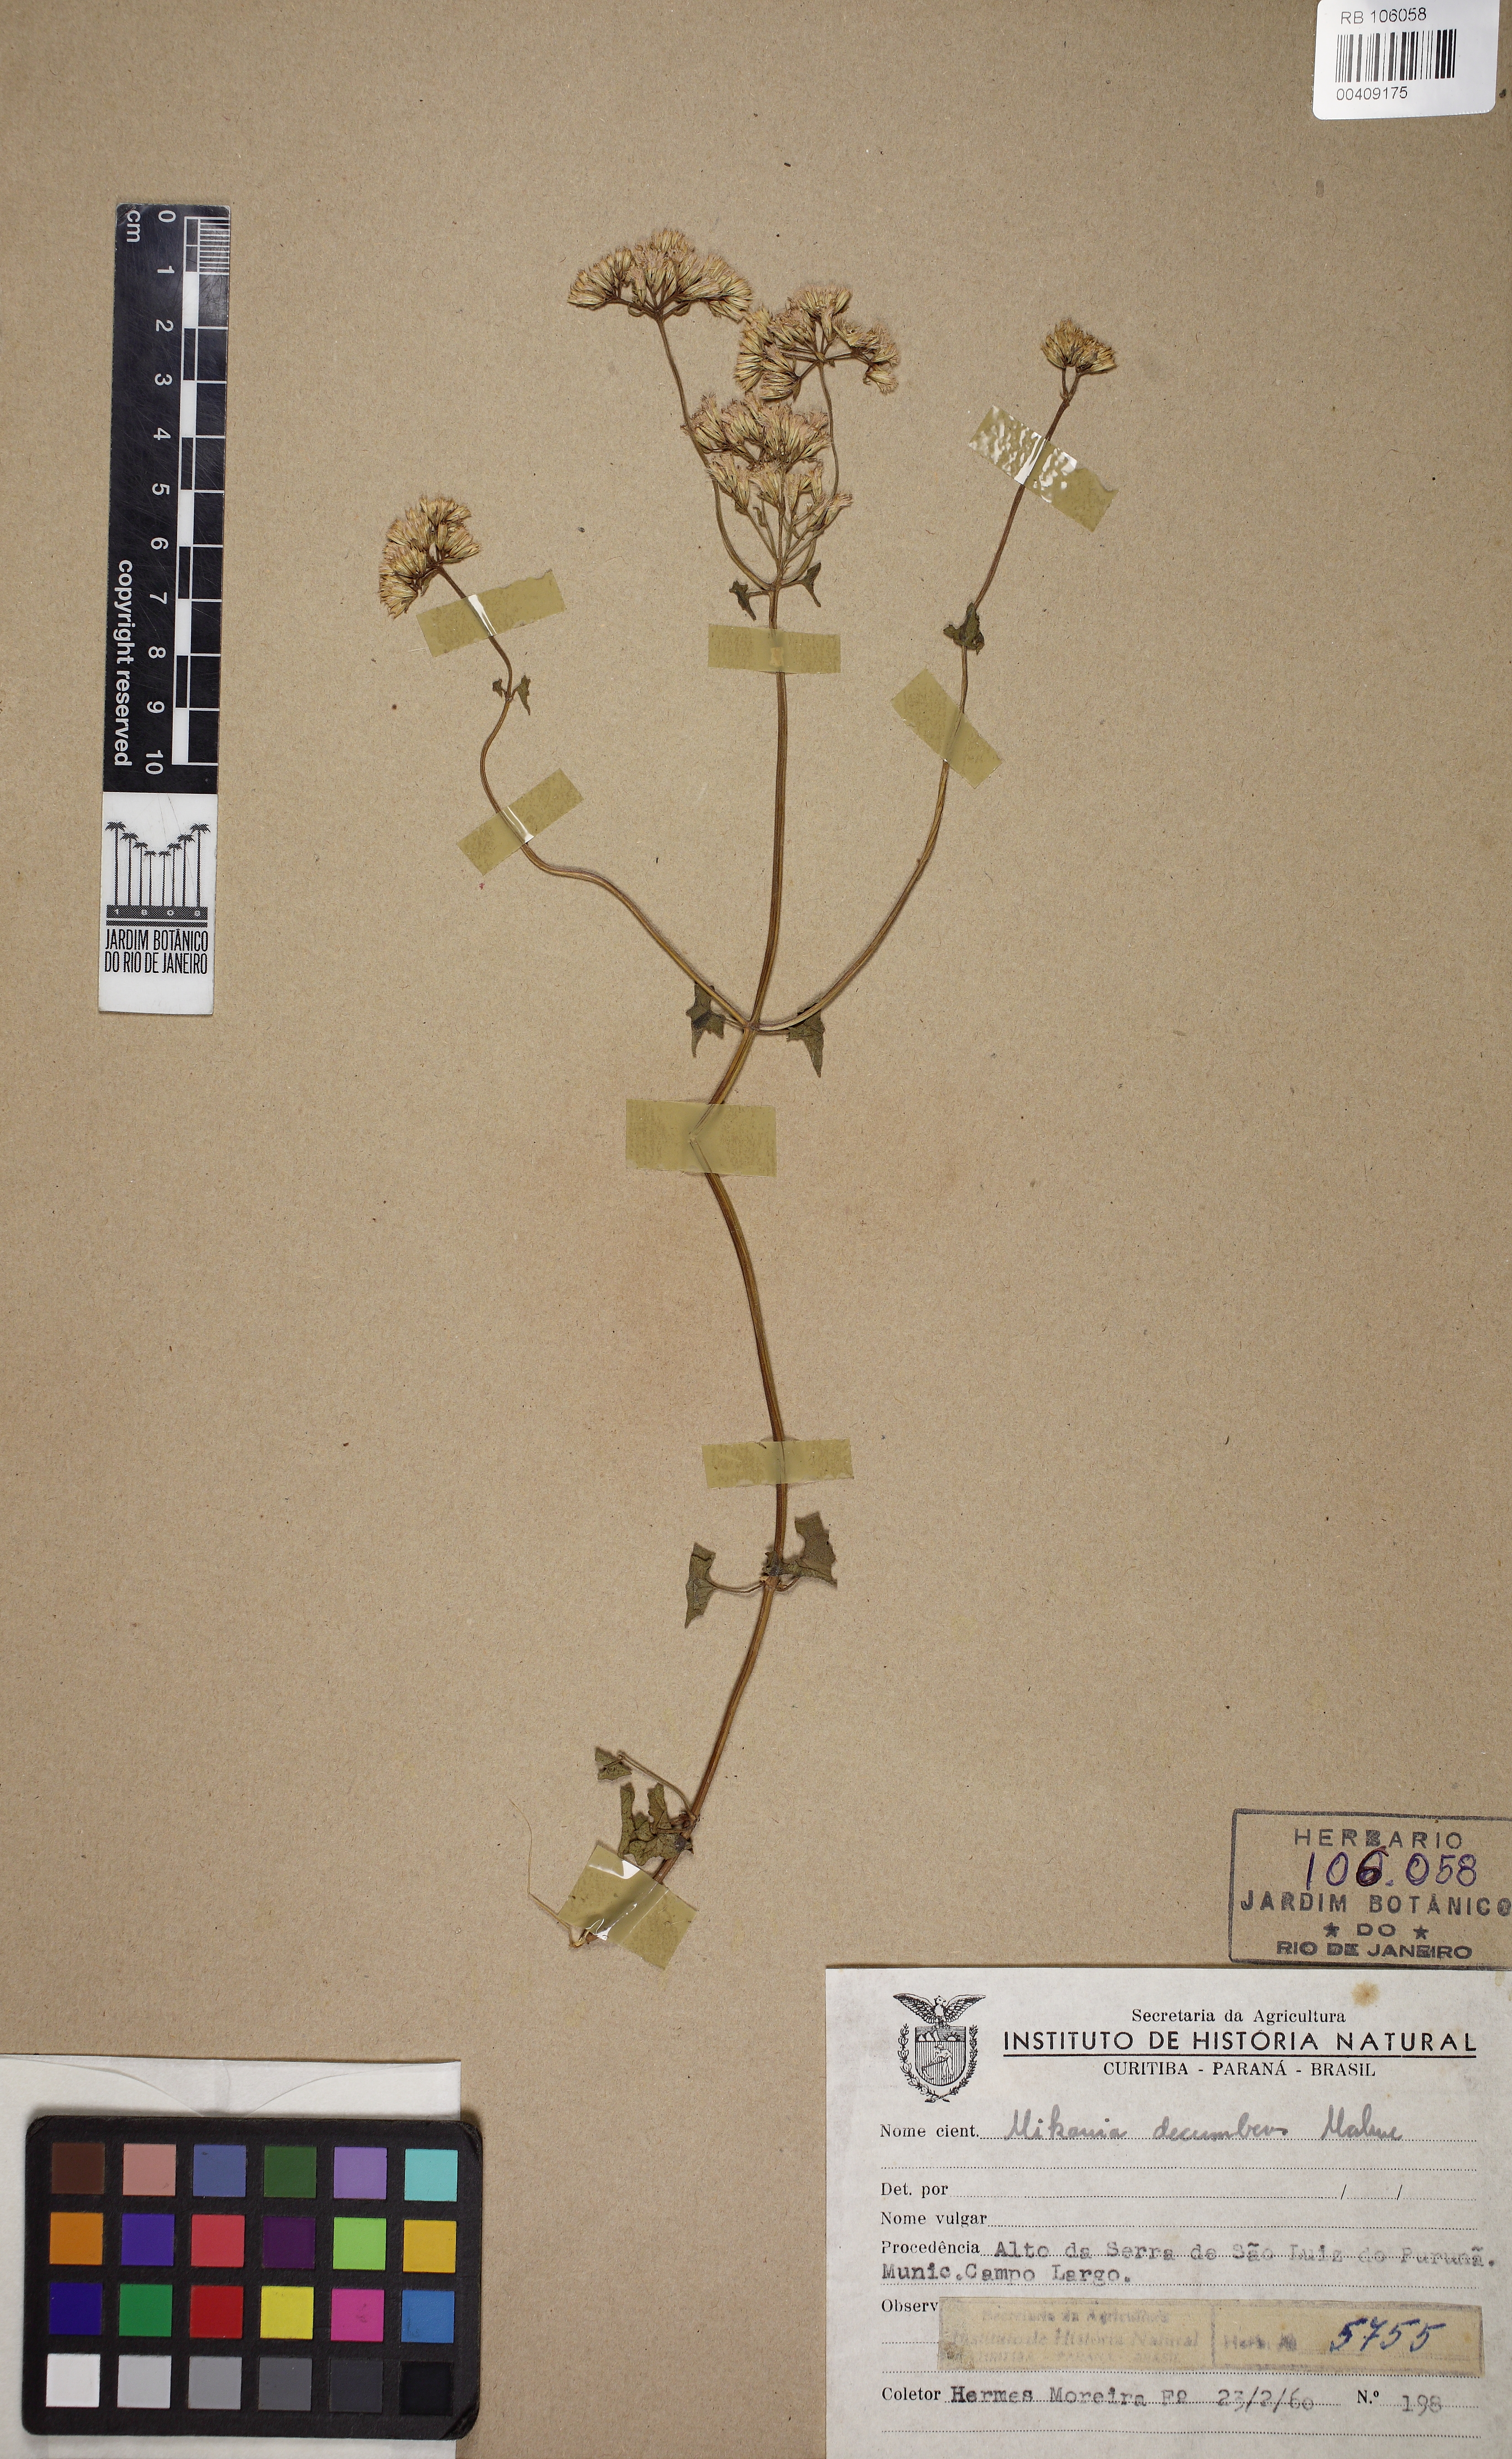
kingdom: Plantae
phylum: Tracheophyta
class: Magnoliopsida
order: Asterales
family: Asteraceae
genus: Mikania
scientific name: Mikania decumbens
